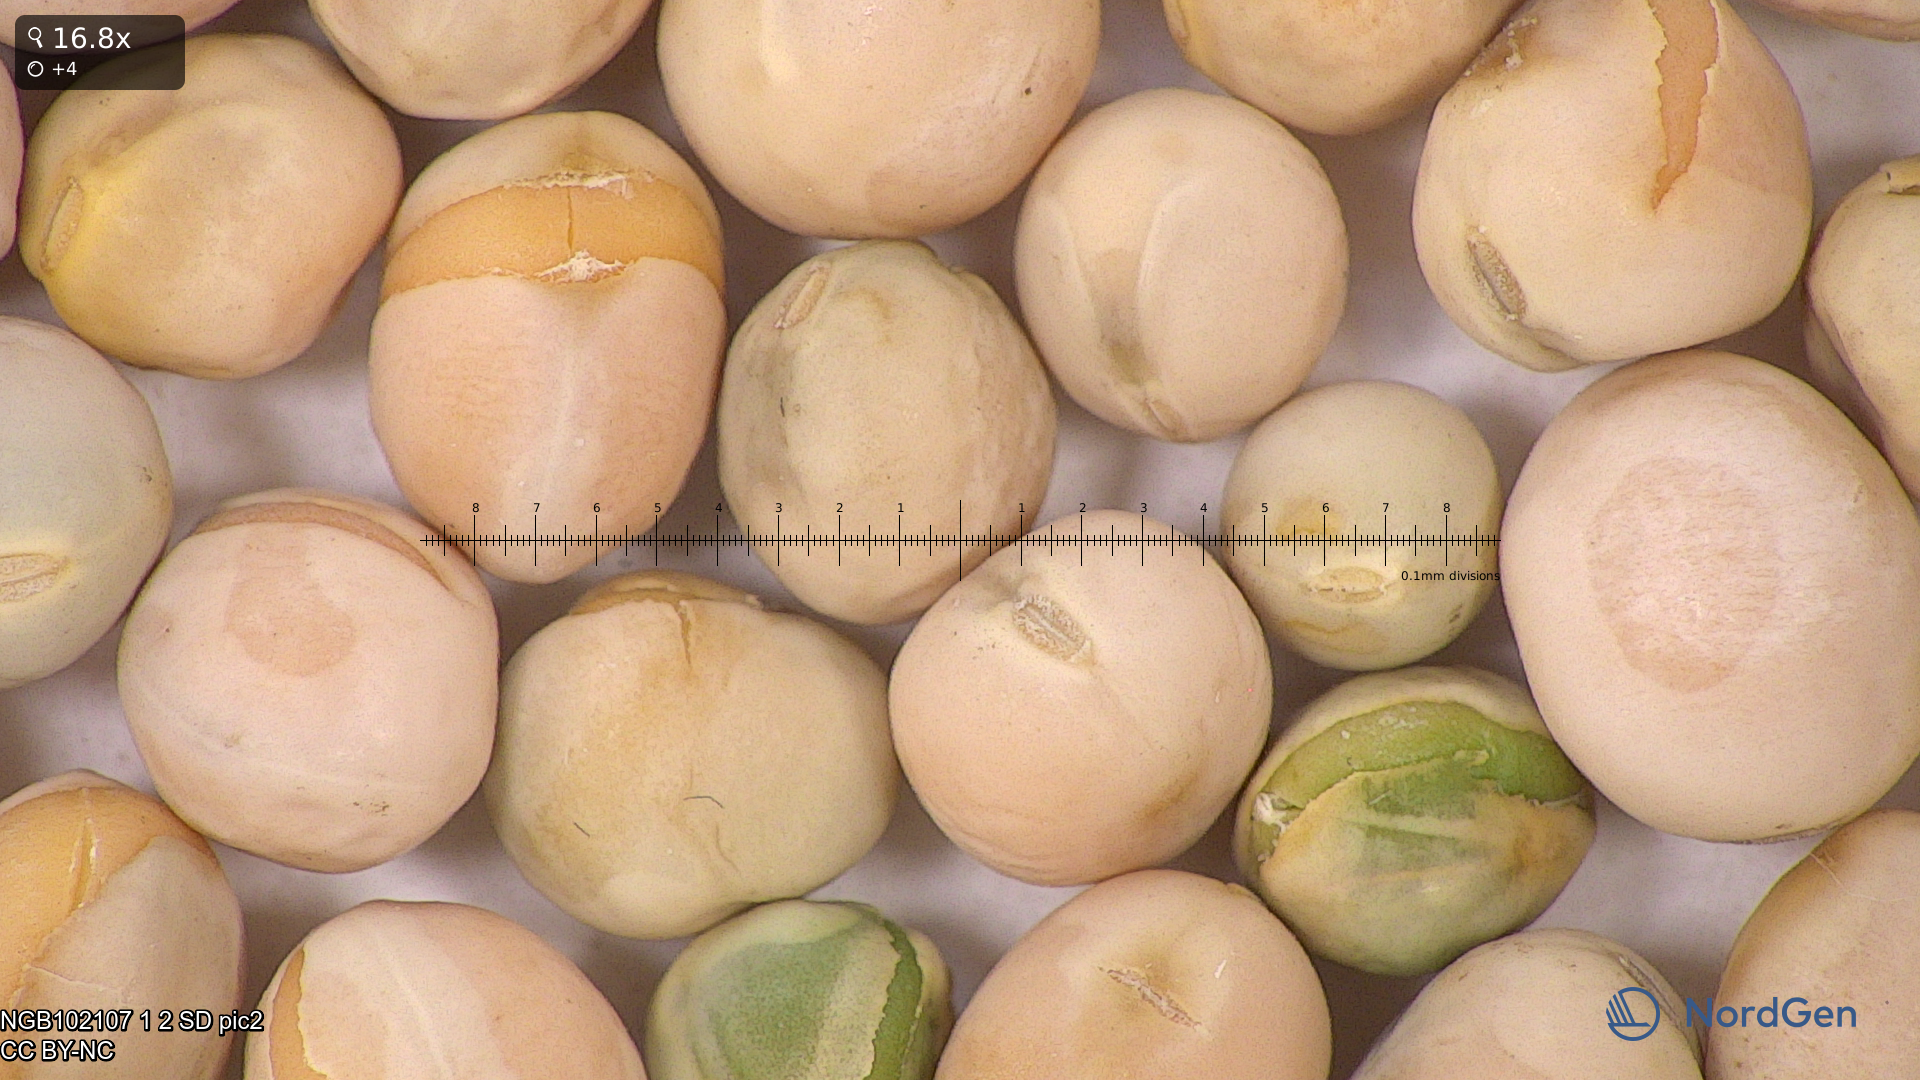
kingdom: Plantae
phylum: Tracheophyta
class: Magnoliopsida
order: Fabales
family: Fabaceae
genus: Lathyrus
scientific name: Lathyrus oleraceus
